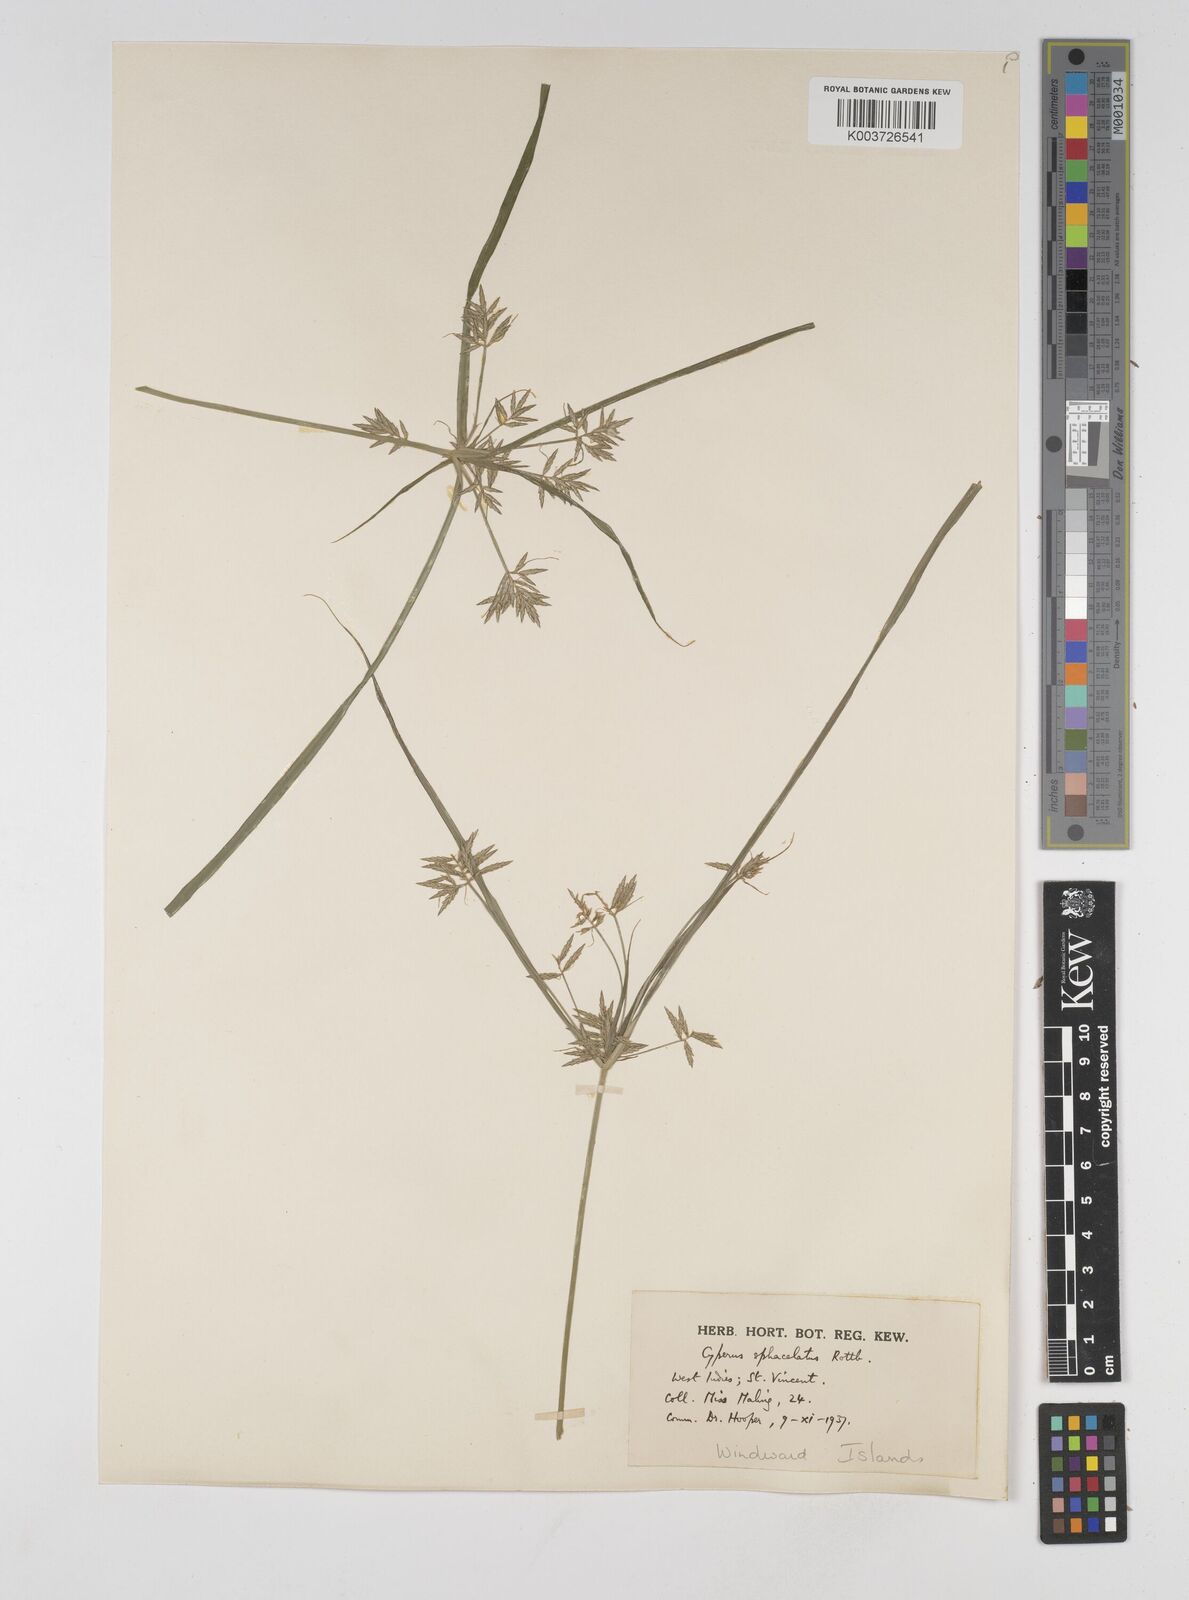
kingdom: Plantae
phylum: Tracheophyta
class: Liliopsida
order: Poales
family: Cyperaceae
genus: Cyperus
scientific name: Cyperus sphacelatus
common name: Roadside flatsedge
